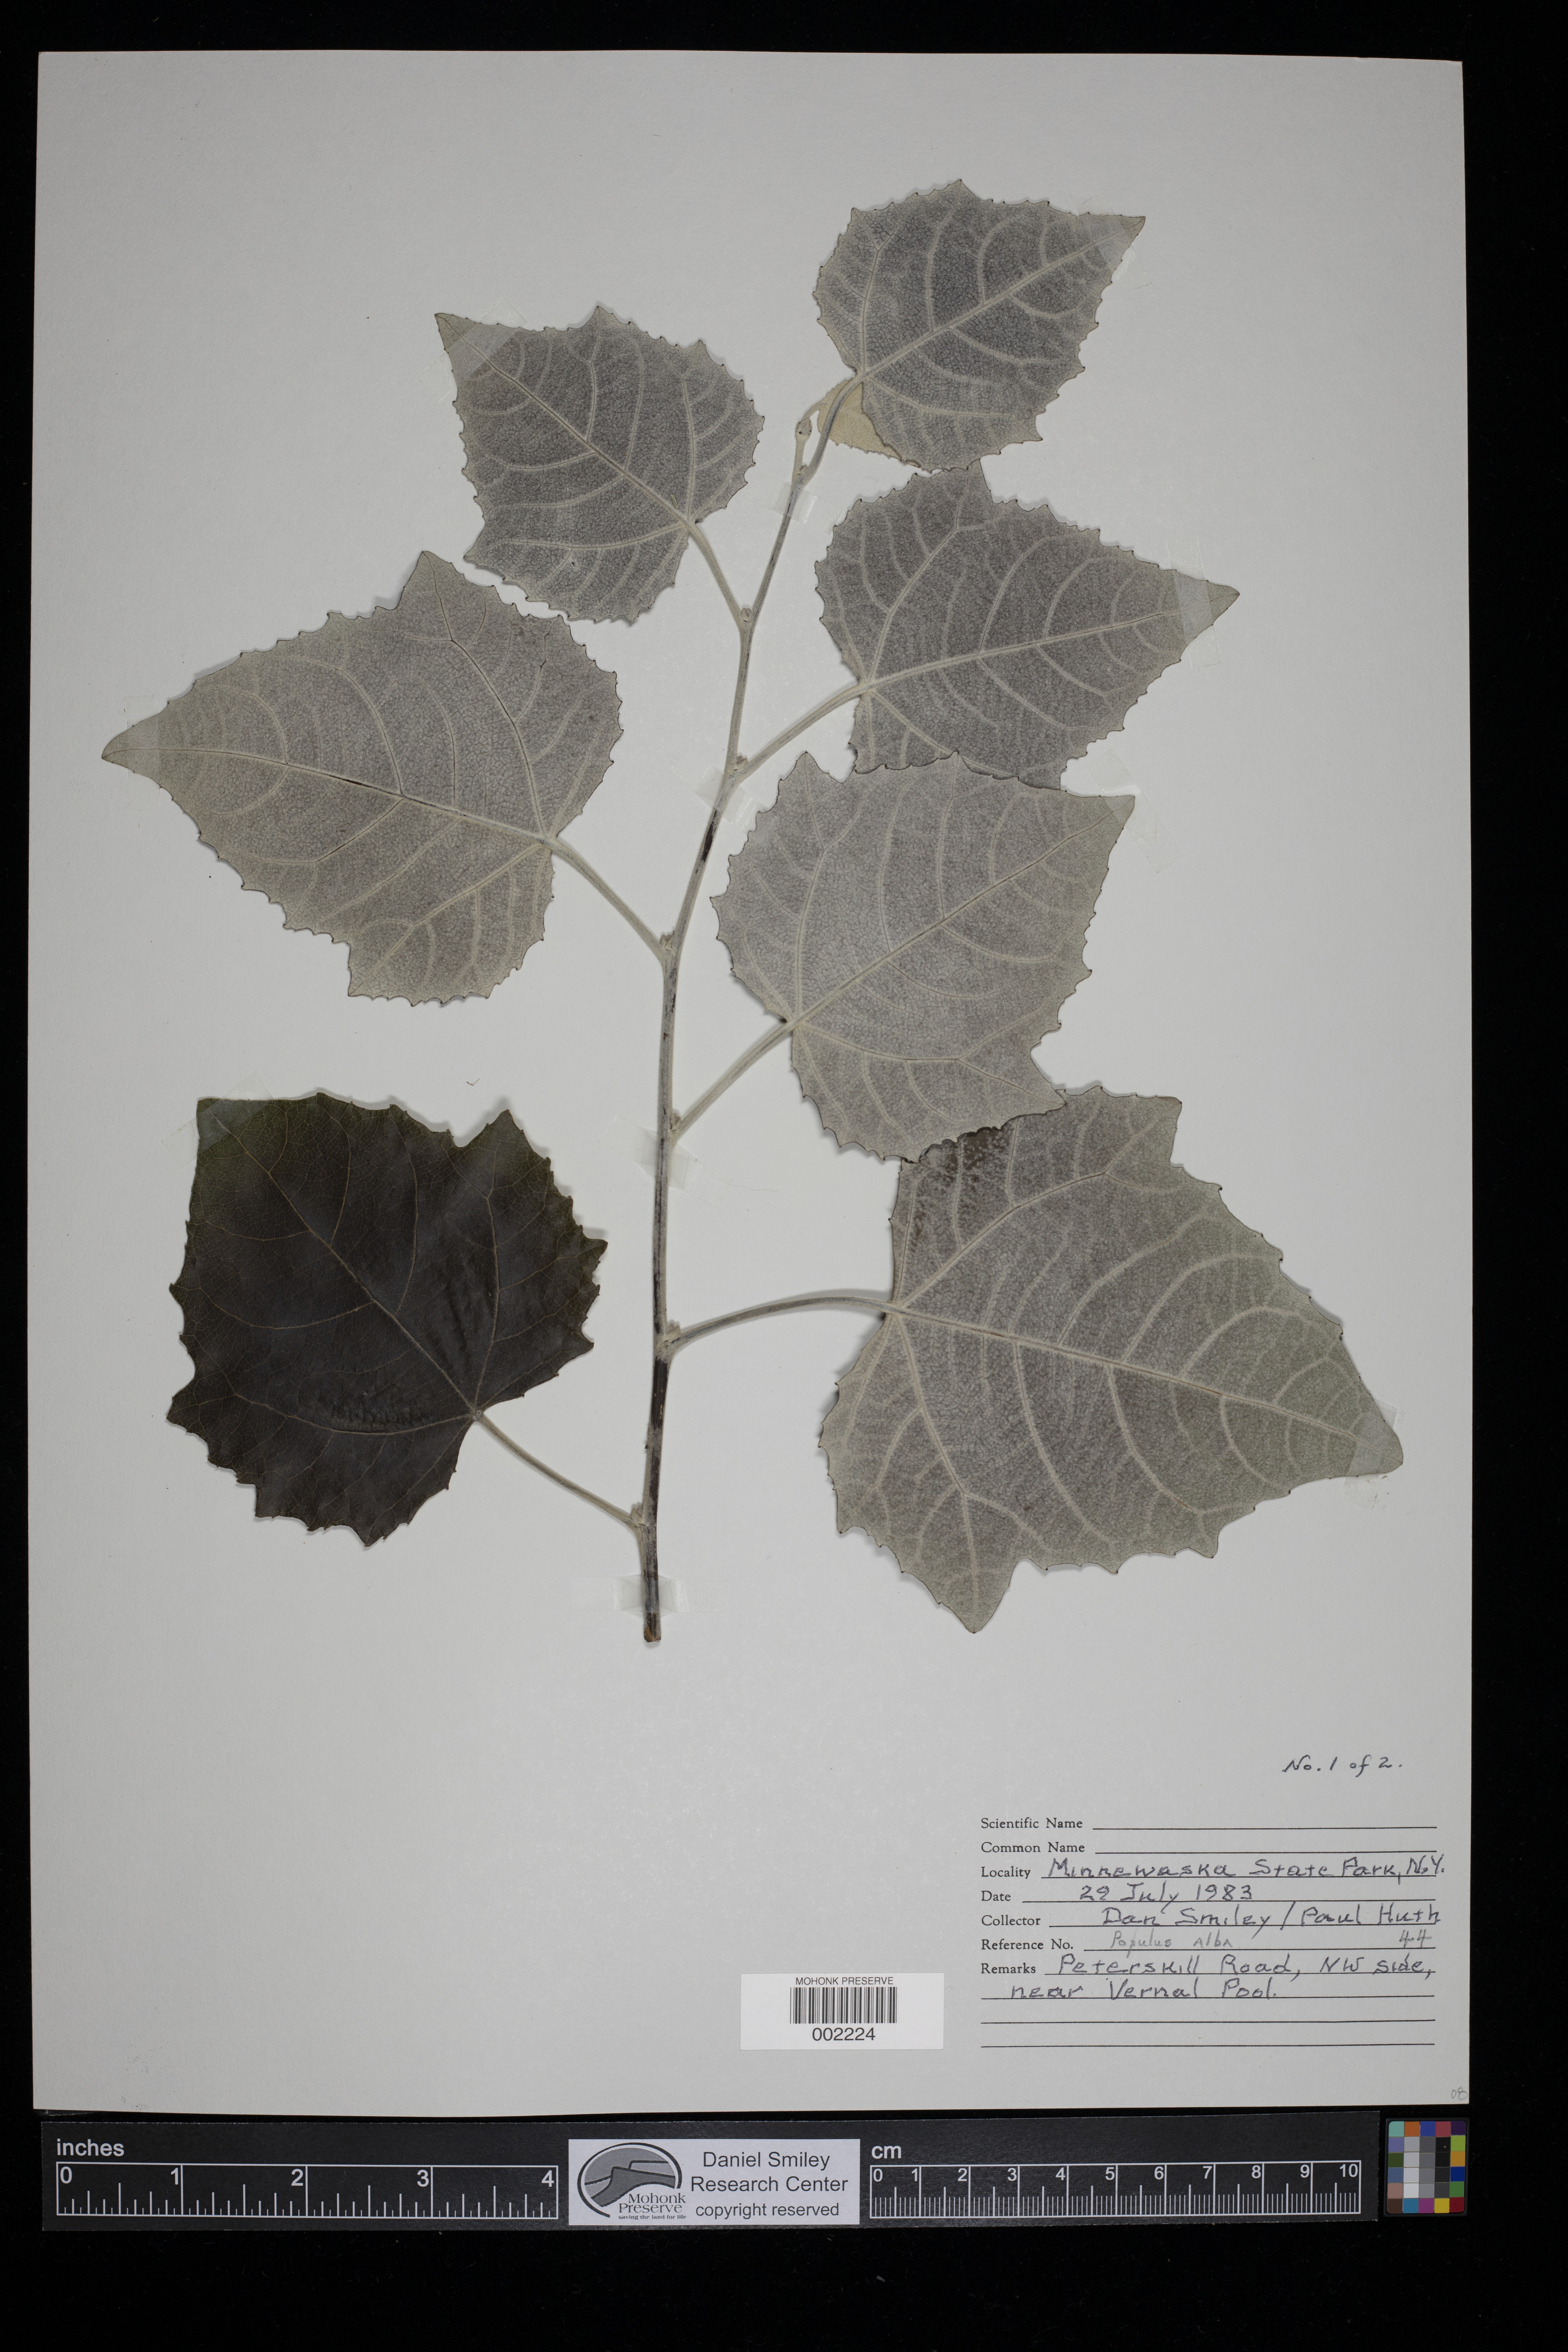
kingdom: Plantae
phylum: Tracheophyta
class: Magnoliopsida
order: Malpighiales
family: Salicaceae
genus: Populus
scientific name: Populus alba
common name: White poplar
